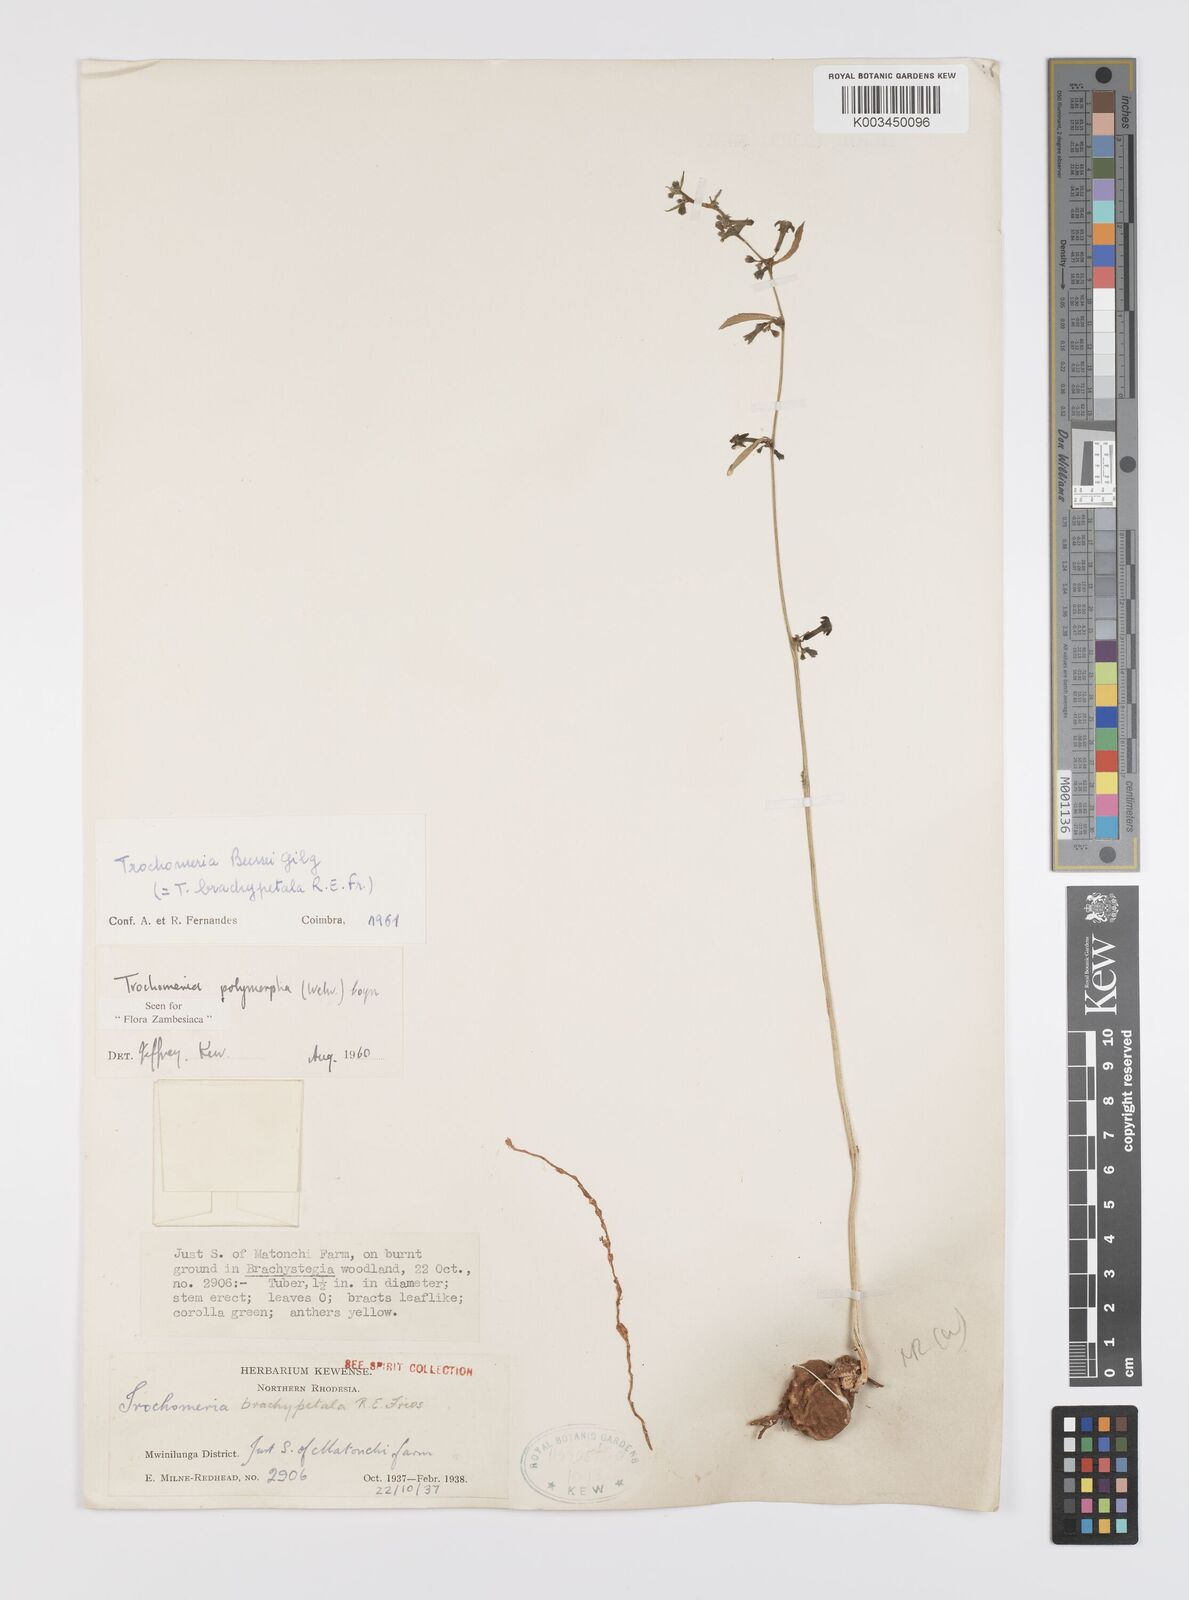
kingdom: Plantae
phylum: Tracheophyta
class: Magnoliopsida
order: Cucurbitales
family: Cucurbitaceae
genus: Trochomeria
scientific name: Trochomeria polymorpha
